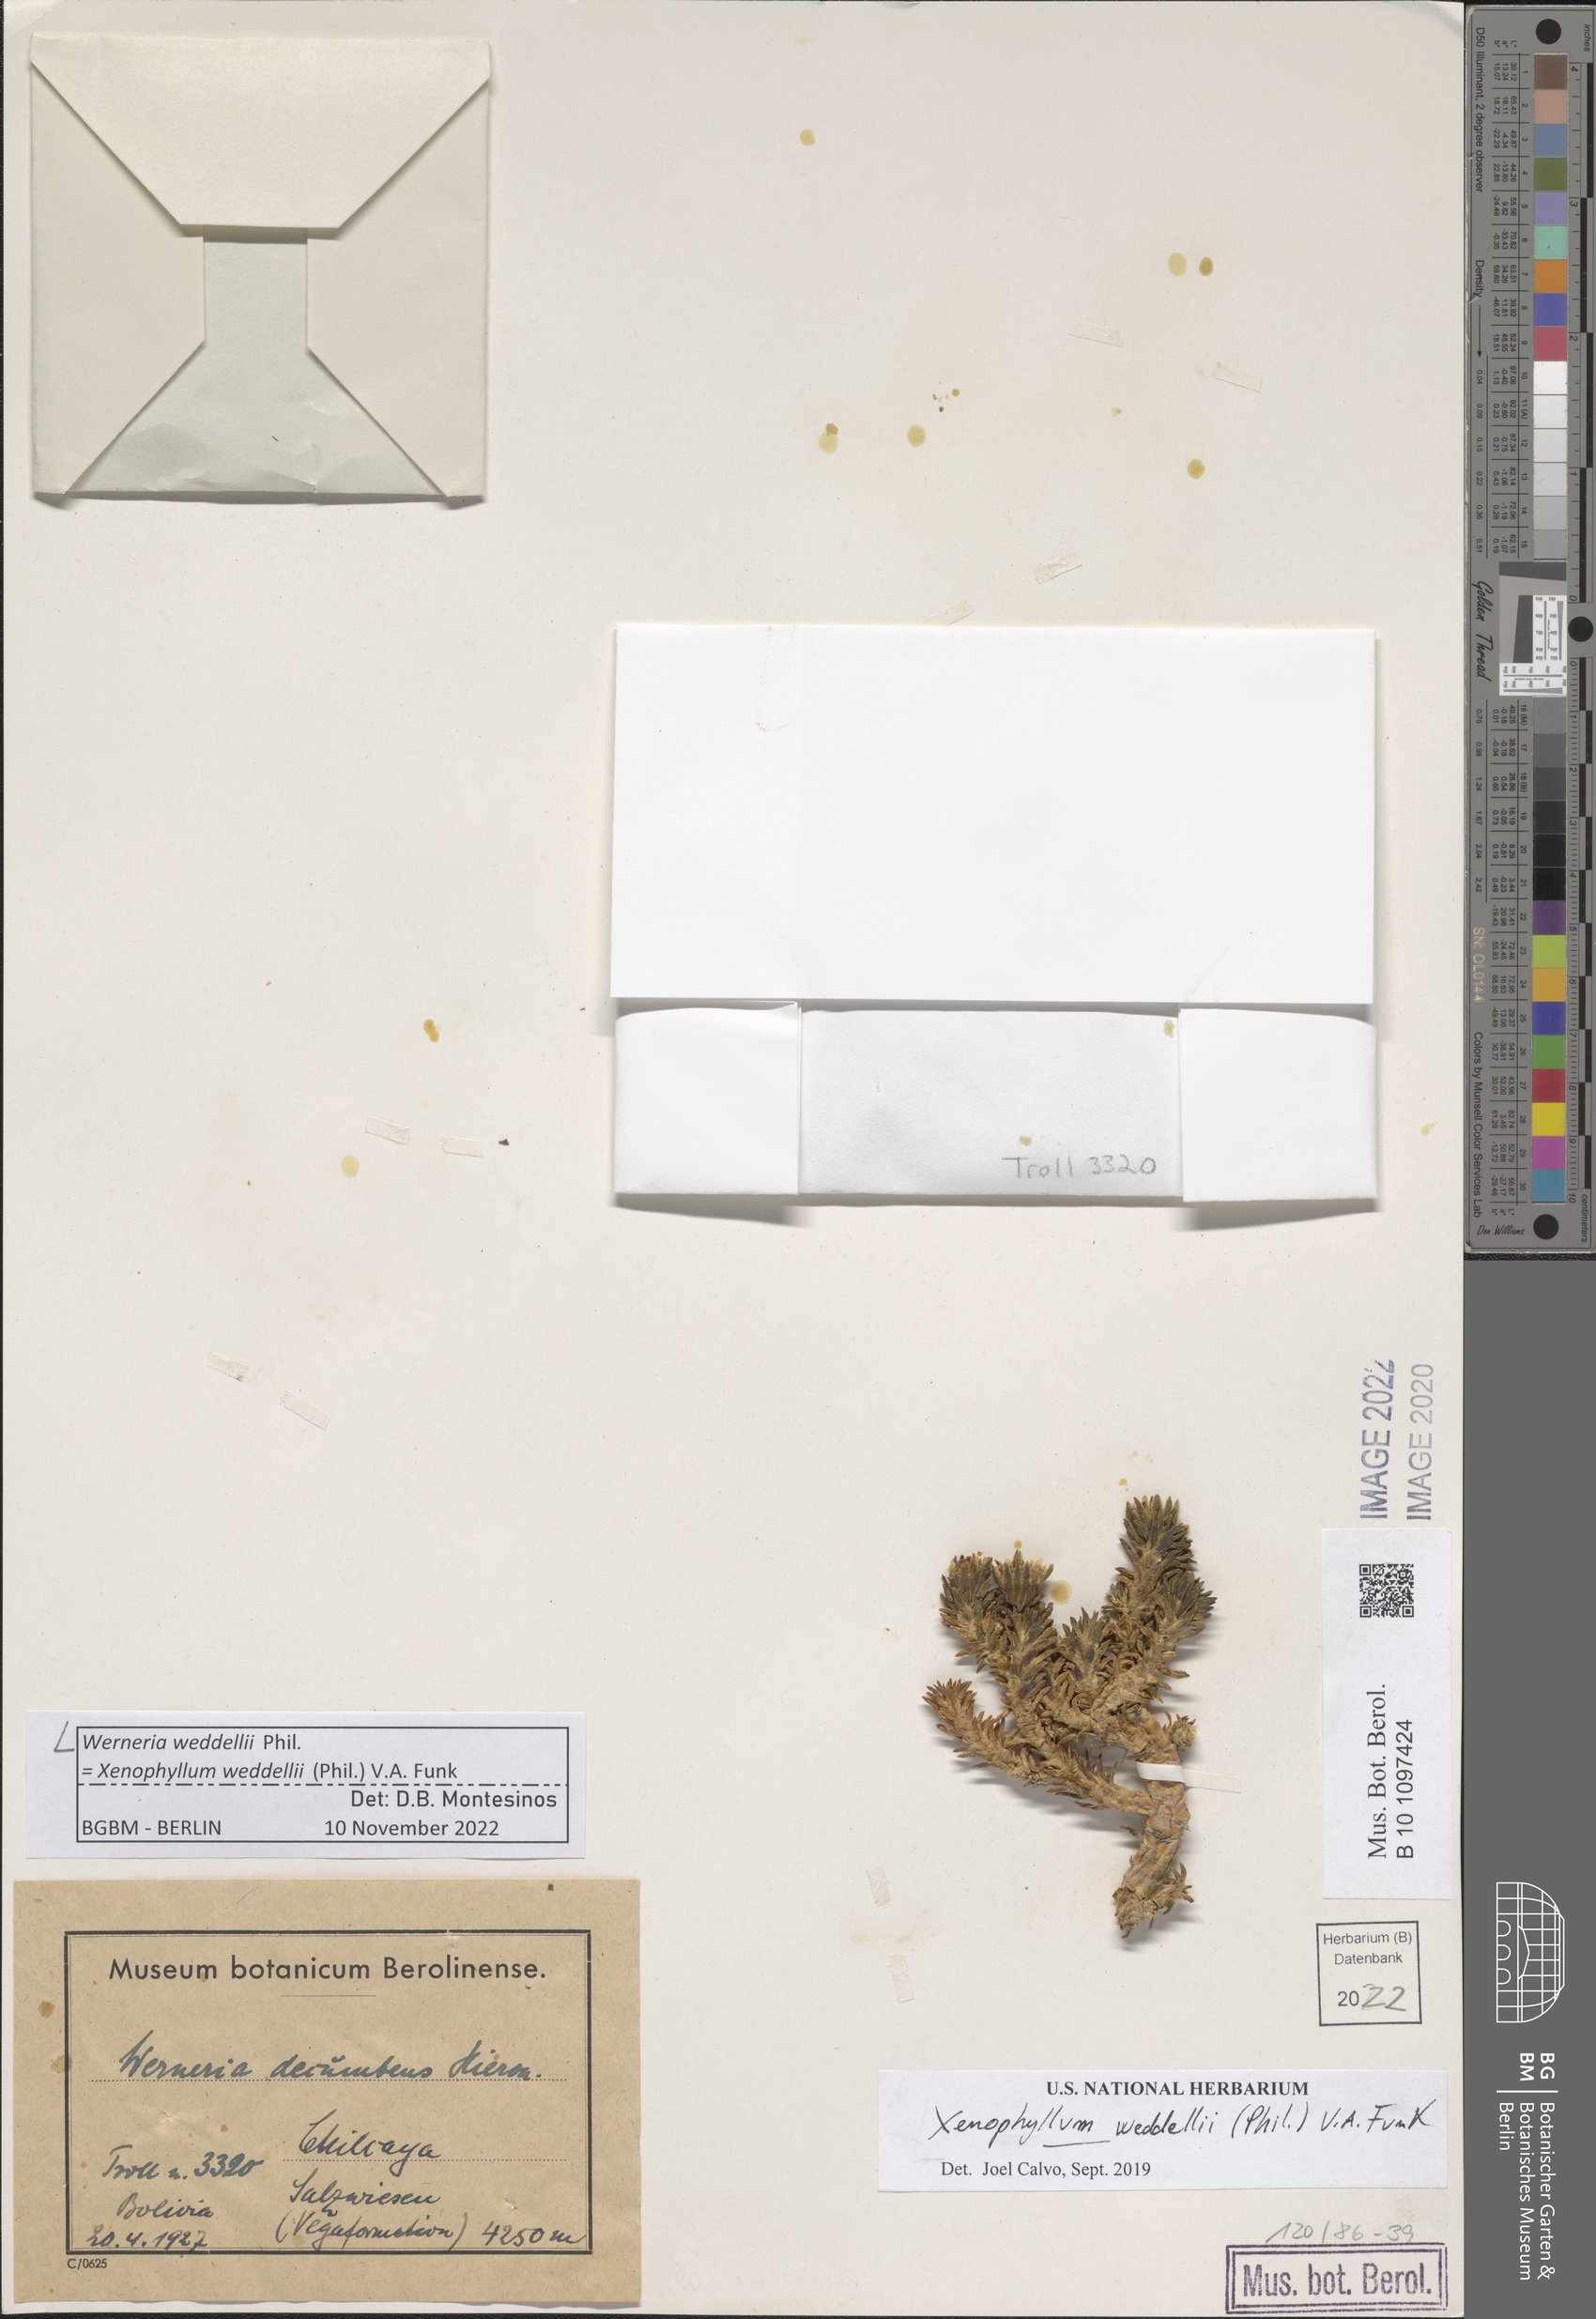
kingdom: Plantae
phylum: Tracheophyta
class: Magnoliopsida
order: Asterales
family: Asteraceae
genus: Werneria
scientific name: Werneria weddellii
